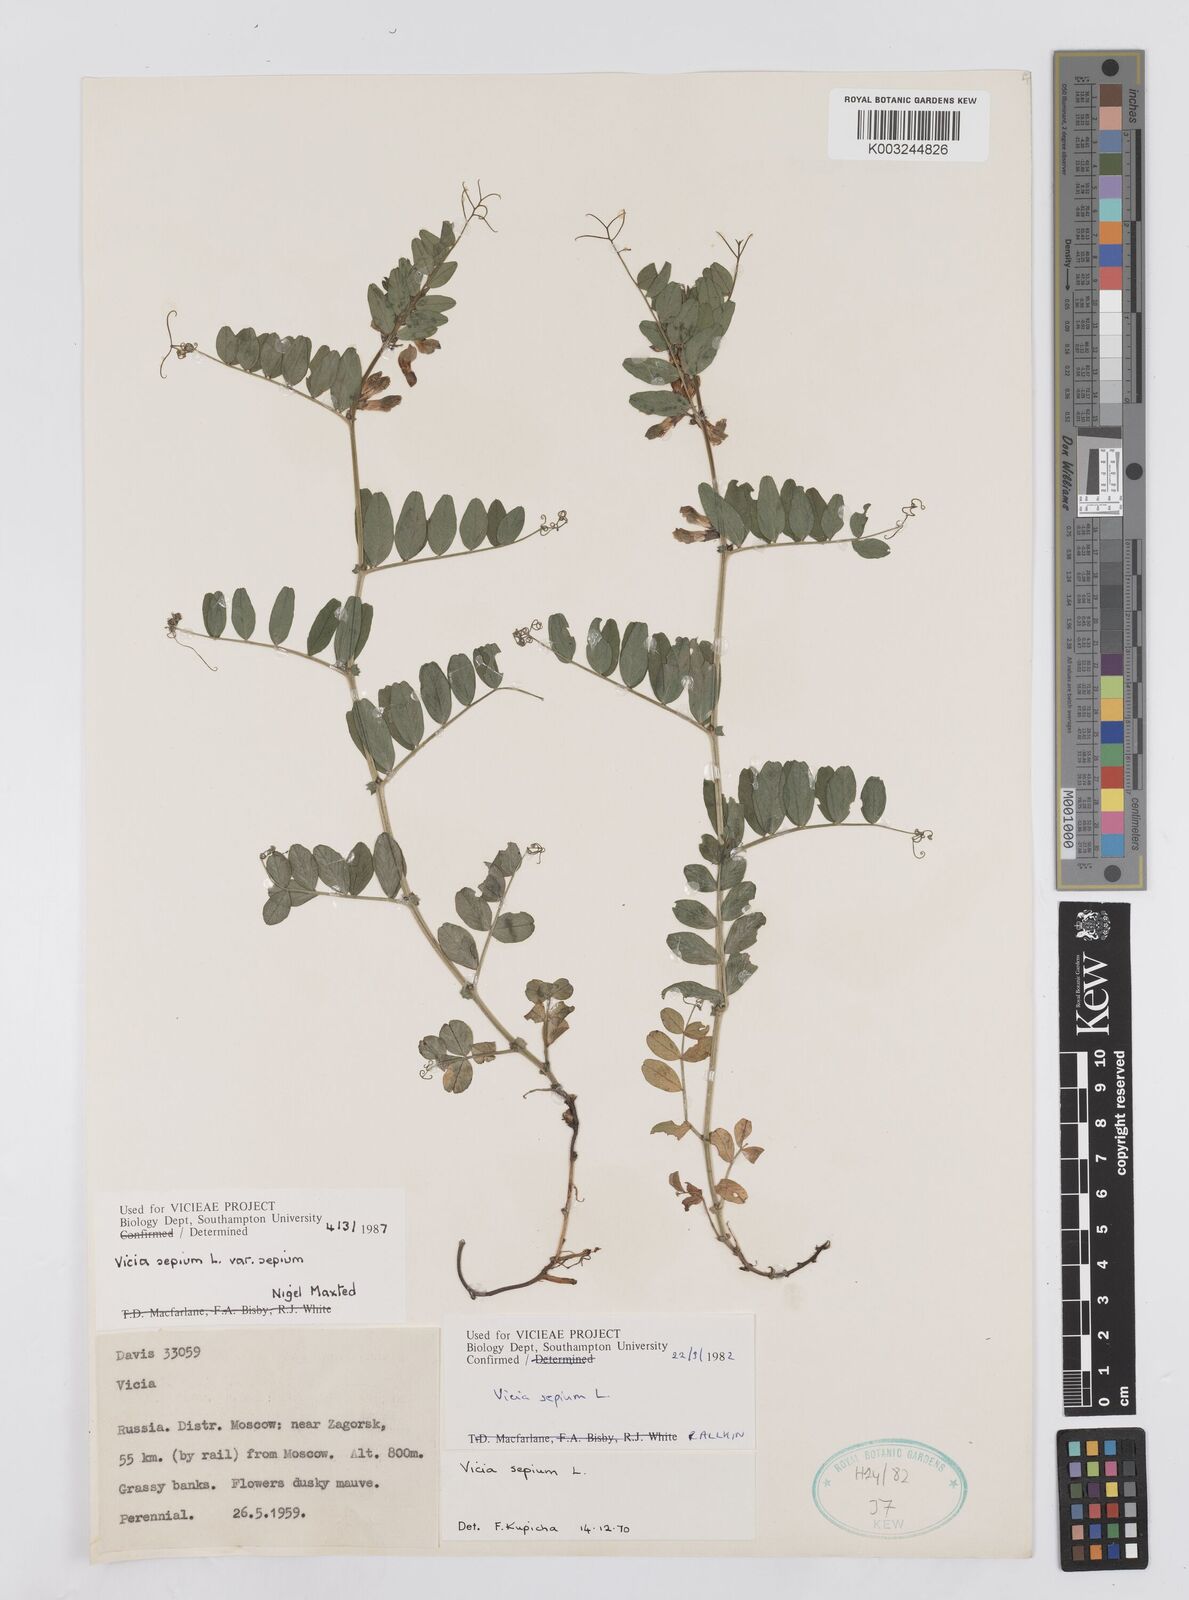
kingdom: Plantae
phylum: Tracheophyta
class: Magnoliopsida
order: Fabales
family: Fabaceae
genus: Vicia
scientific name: Vicia sepium
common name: Bush vetch
